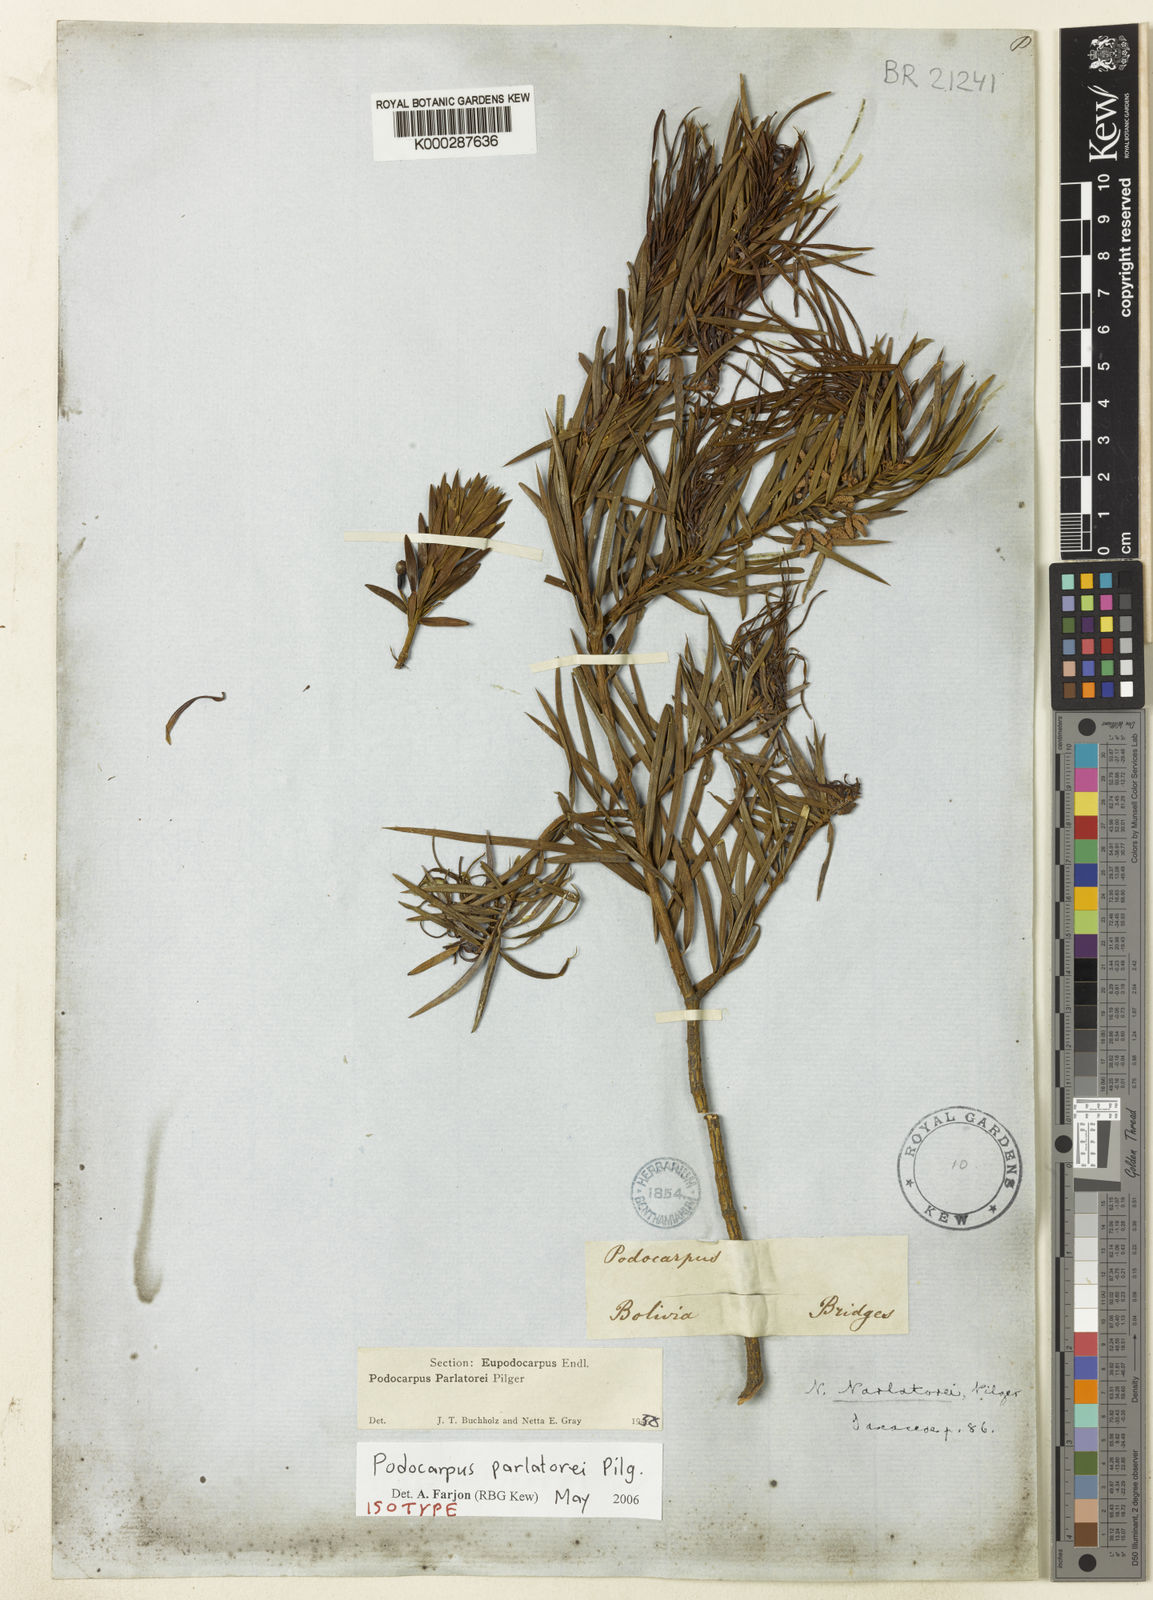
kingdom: Plantae
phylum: Tracheophyta
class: Pinopsida
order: Pinales
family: Podocarpaceae
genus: Podocarpus
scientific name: Podocarpus parlatorei
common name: Pino blanco
